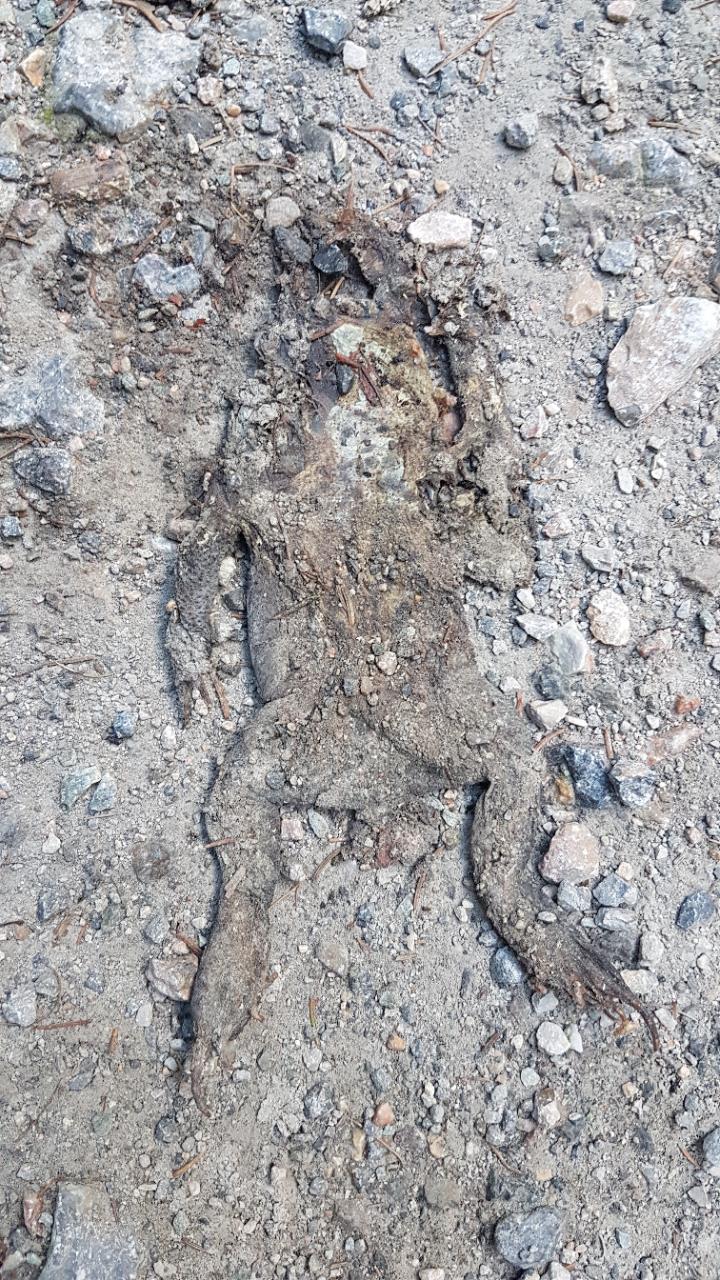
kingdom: Animalia
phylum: Chordata
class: Amphibia
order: Anura
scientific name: Anura
